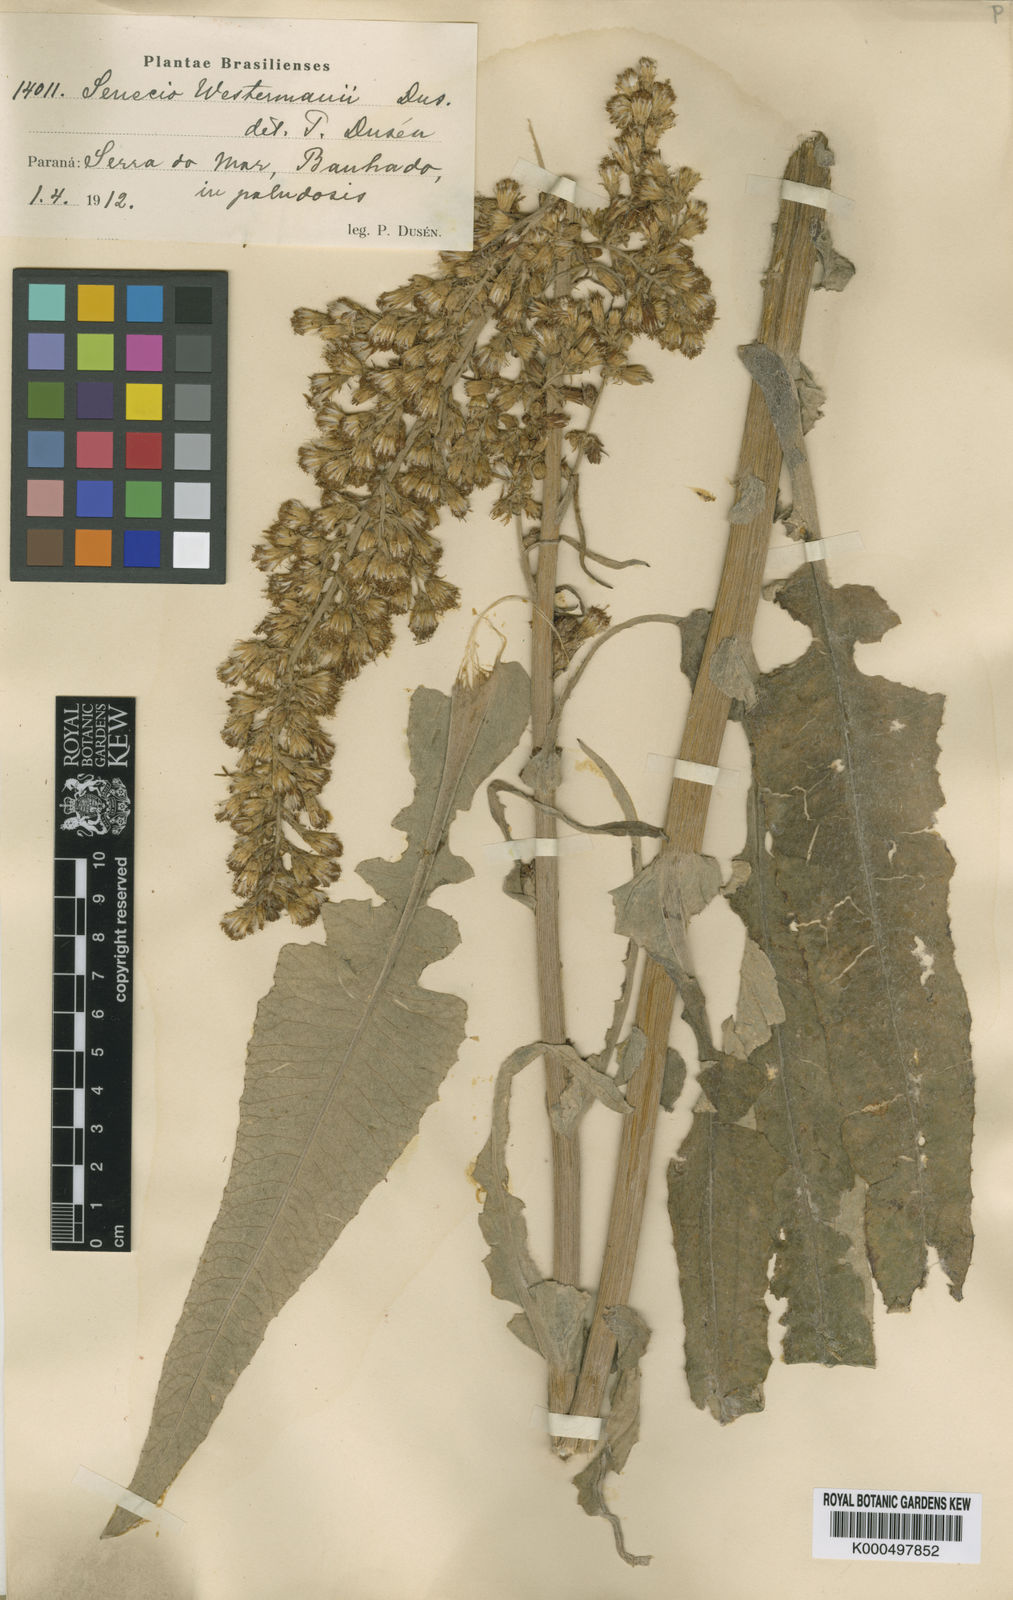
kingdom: Plantae
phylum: Tracheophyta
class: Magnoliopsida
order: Asterales
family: Asteraceae
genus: Senecio
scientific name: Senecio
